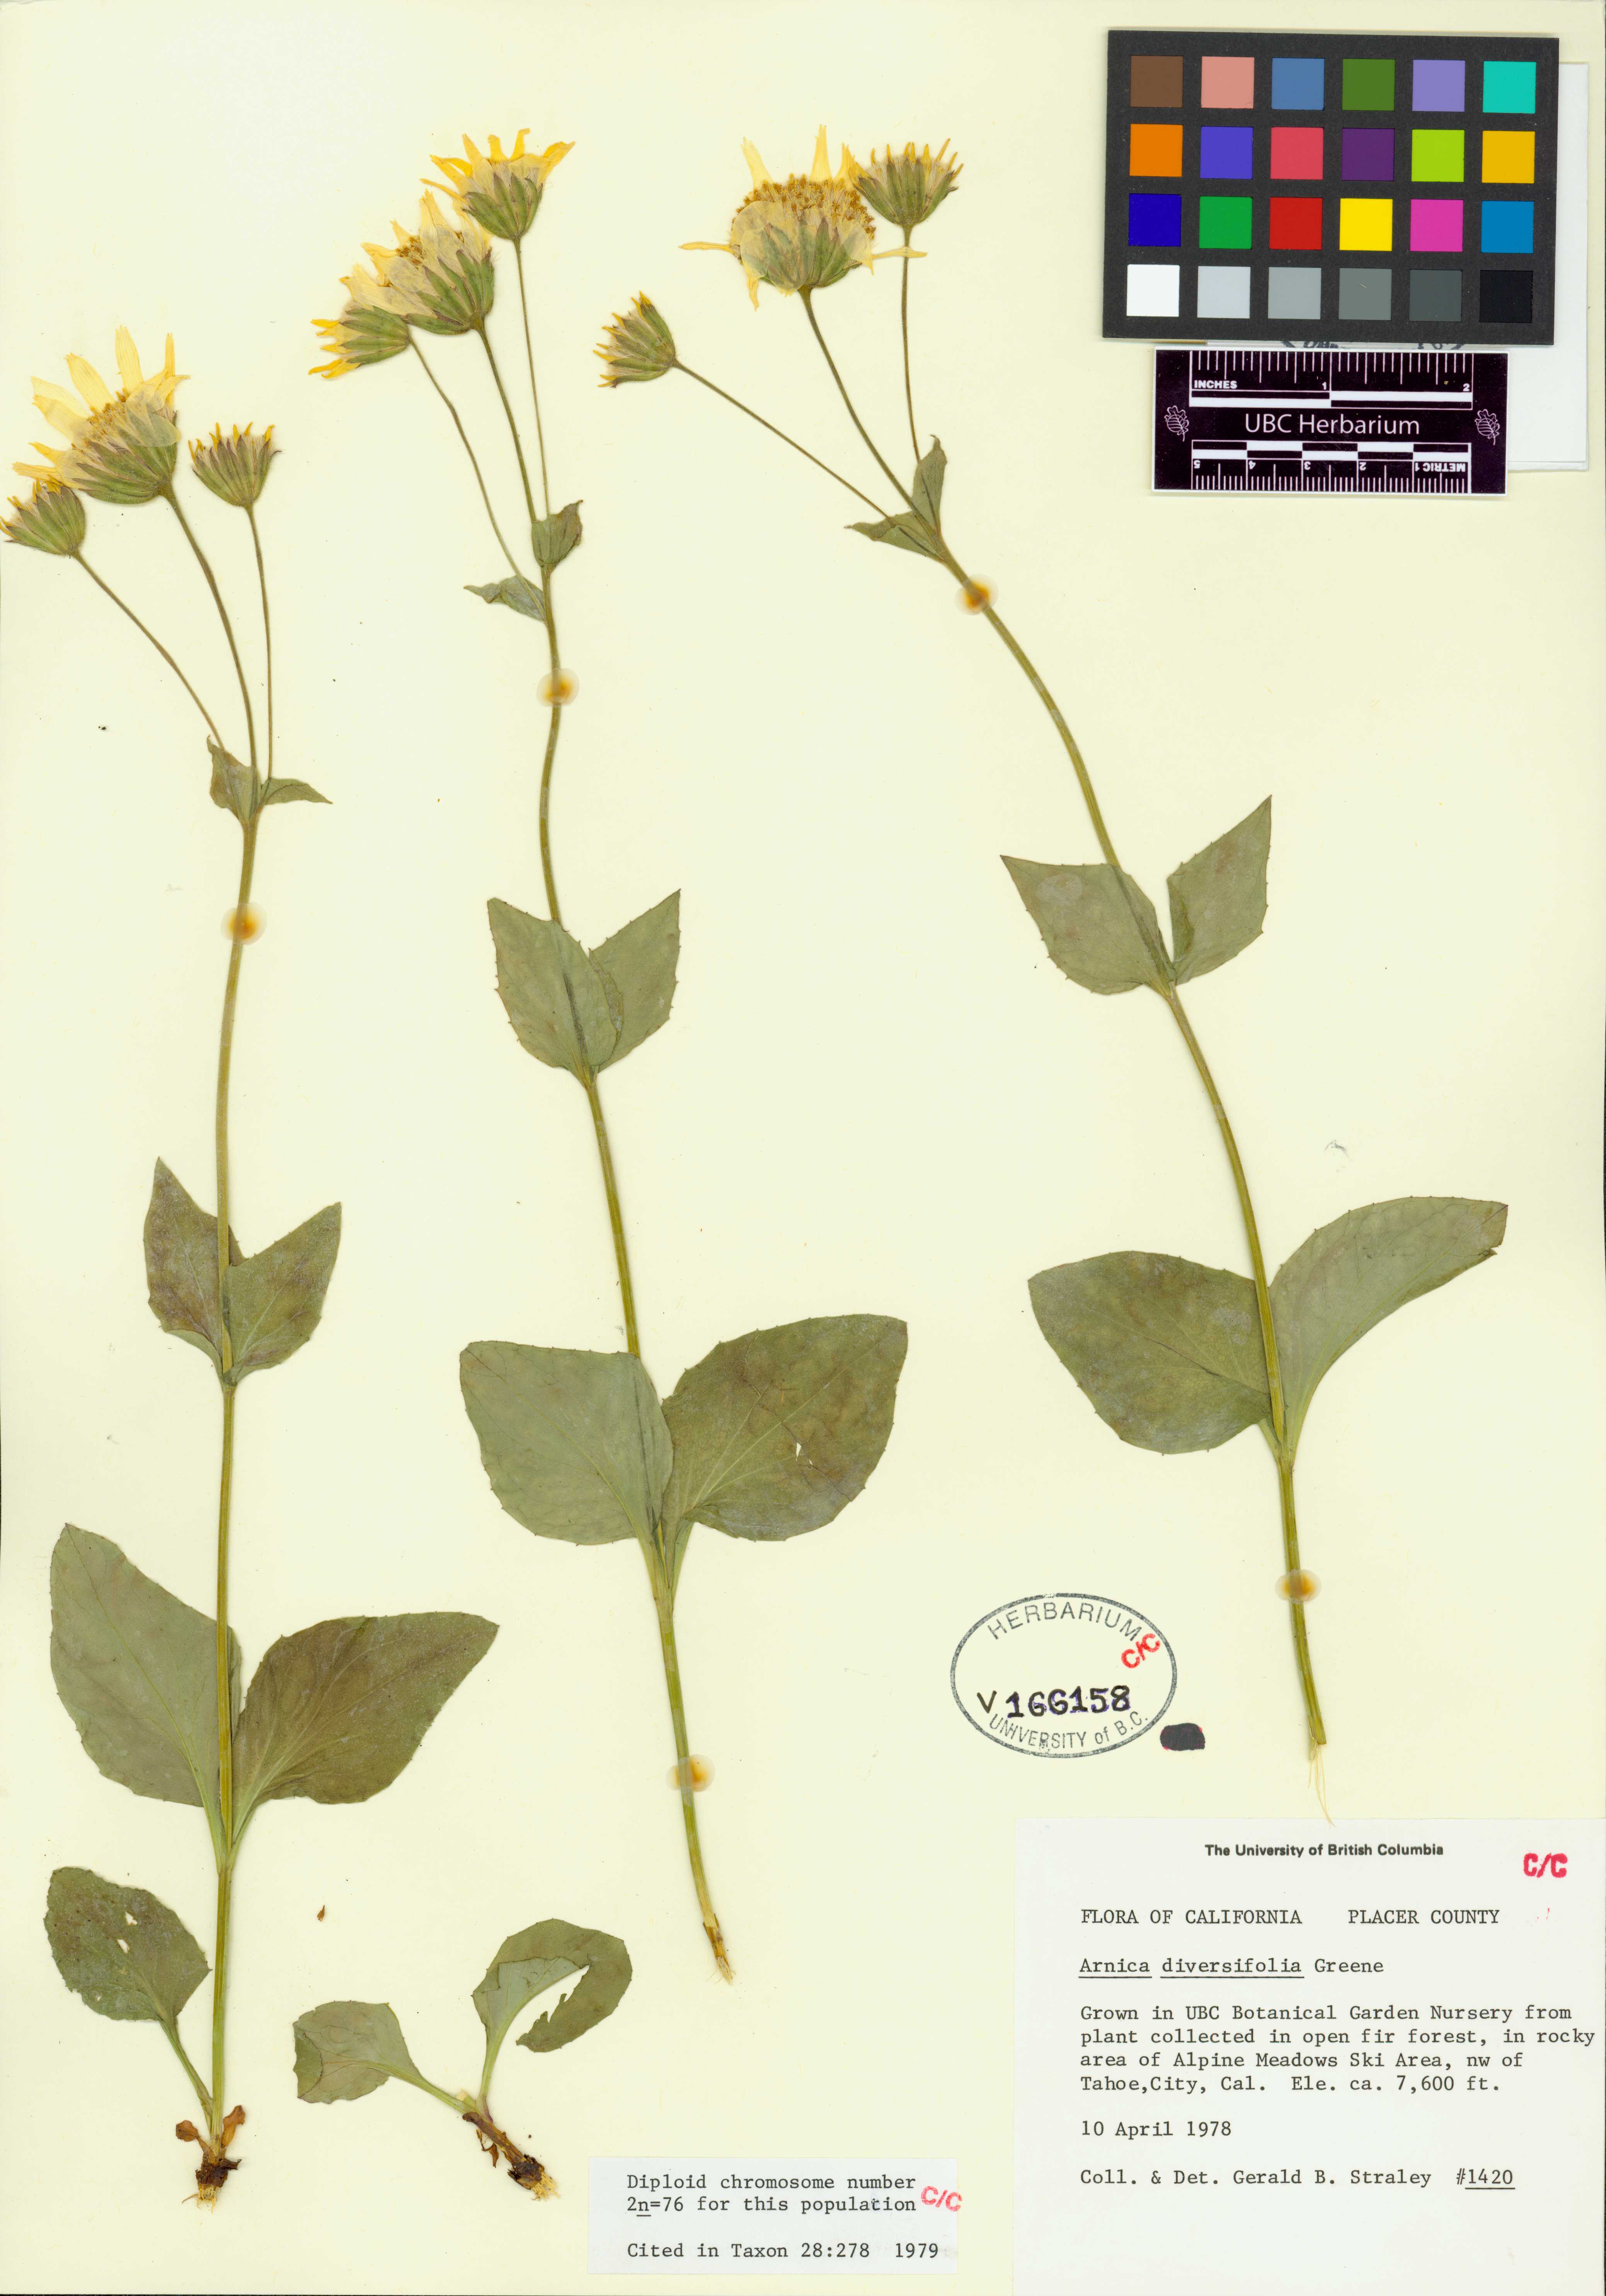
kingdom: Plantae
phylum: Tracheophyta
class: Magnoliopsida
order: Asterales
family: Asteraceae
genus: Arnica
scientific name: Arnica ovata
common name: Diverse arnica
